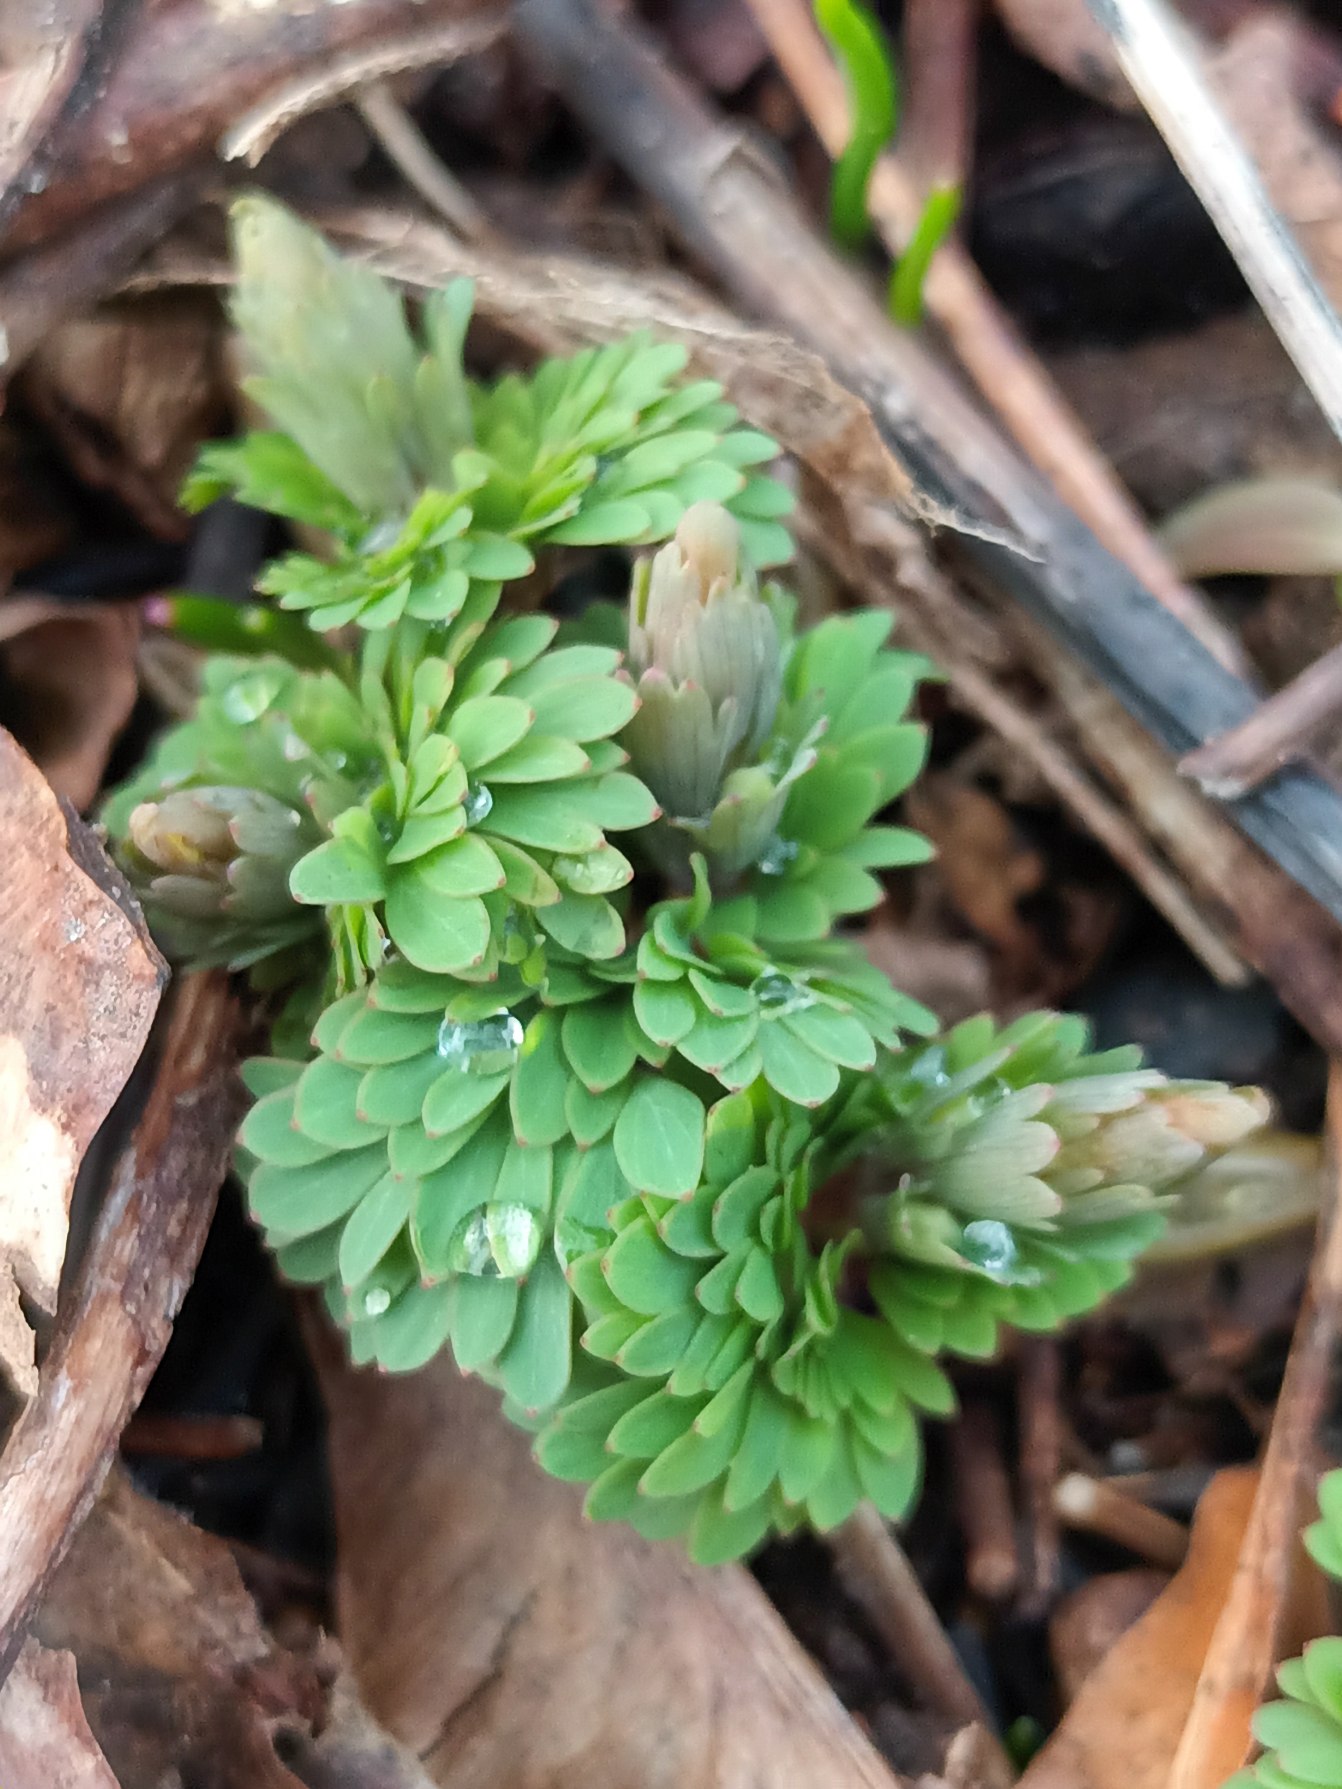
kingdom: Plantae
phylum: Tracheophyta
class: Magnoliopsida
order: Ranunculales
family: Papaveraceae
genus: Corydalis
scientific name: Corydalis solida
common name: Langstilket lærkespore
